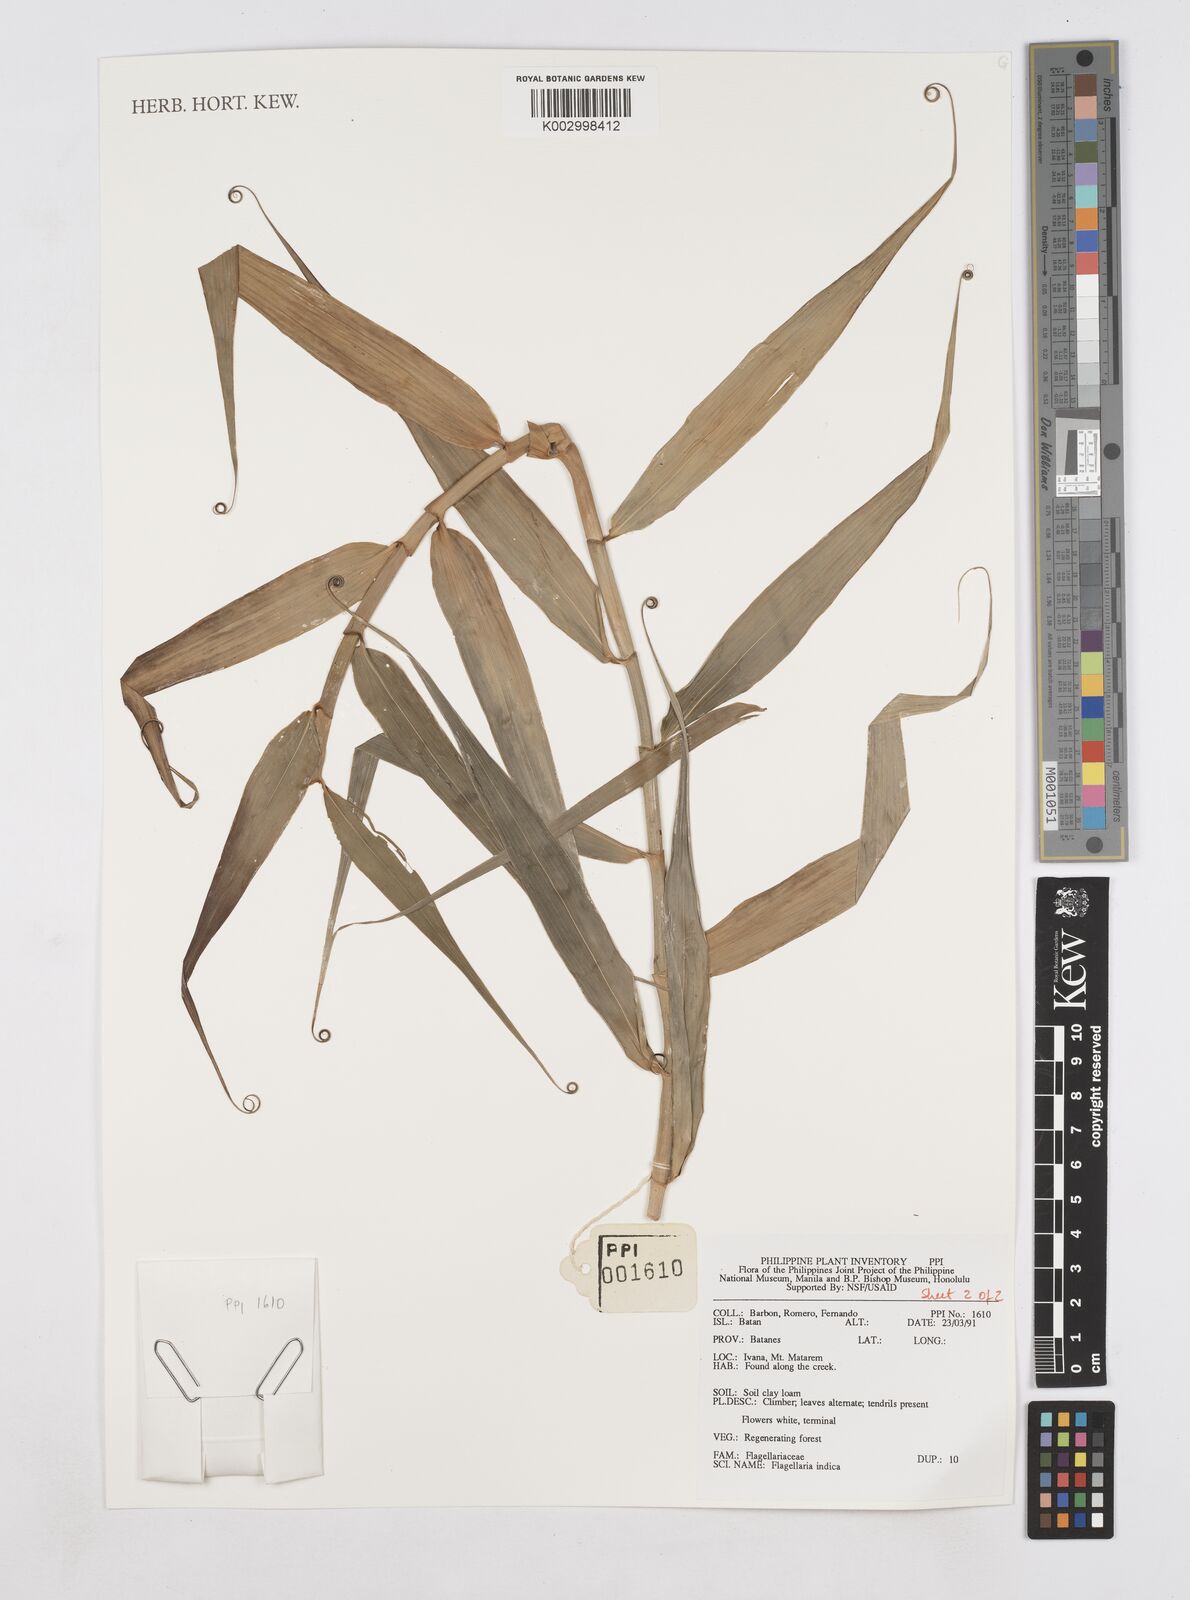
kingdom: Plantae
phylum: Tracheophyta
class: Liliopsida
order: Poales
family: Flagellariaceae
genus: Flagellaria
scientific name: Flagellaria indica
